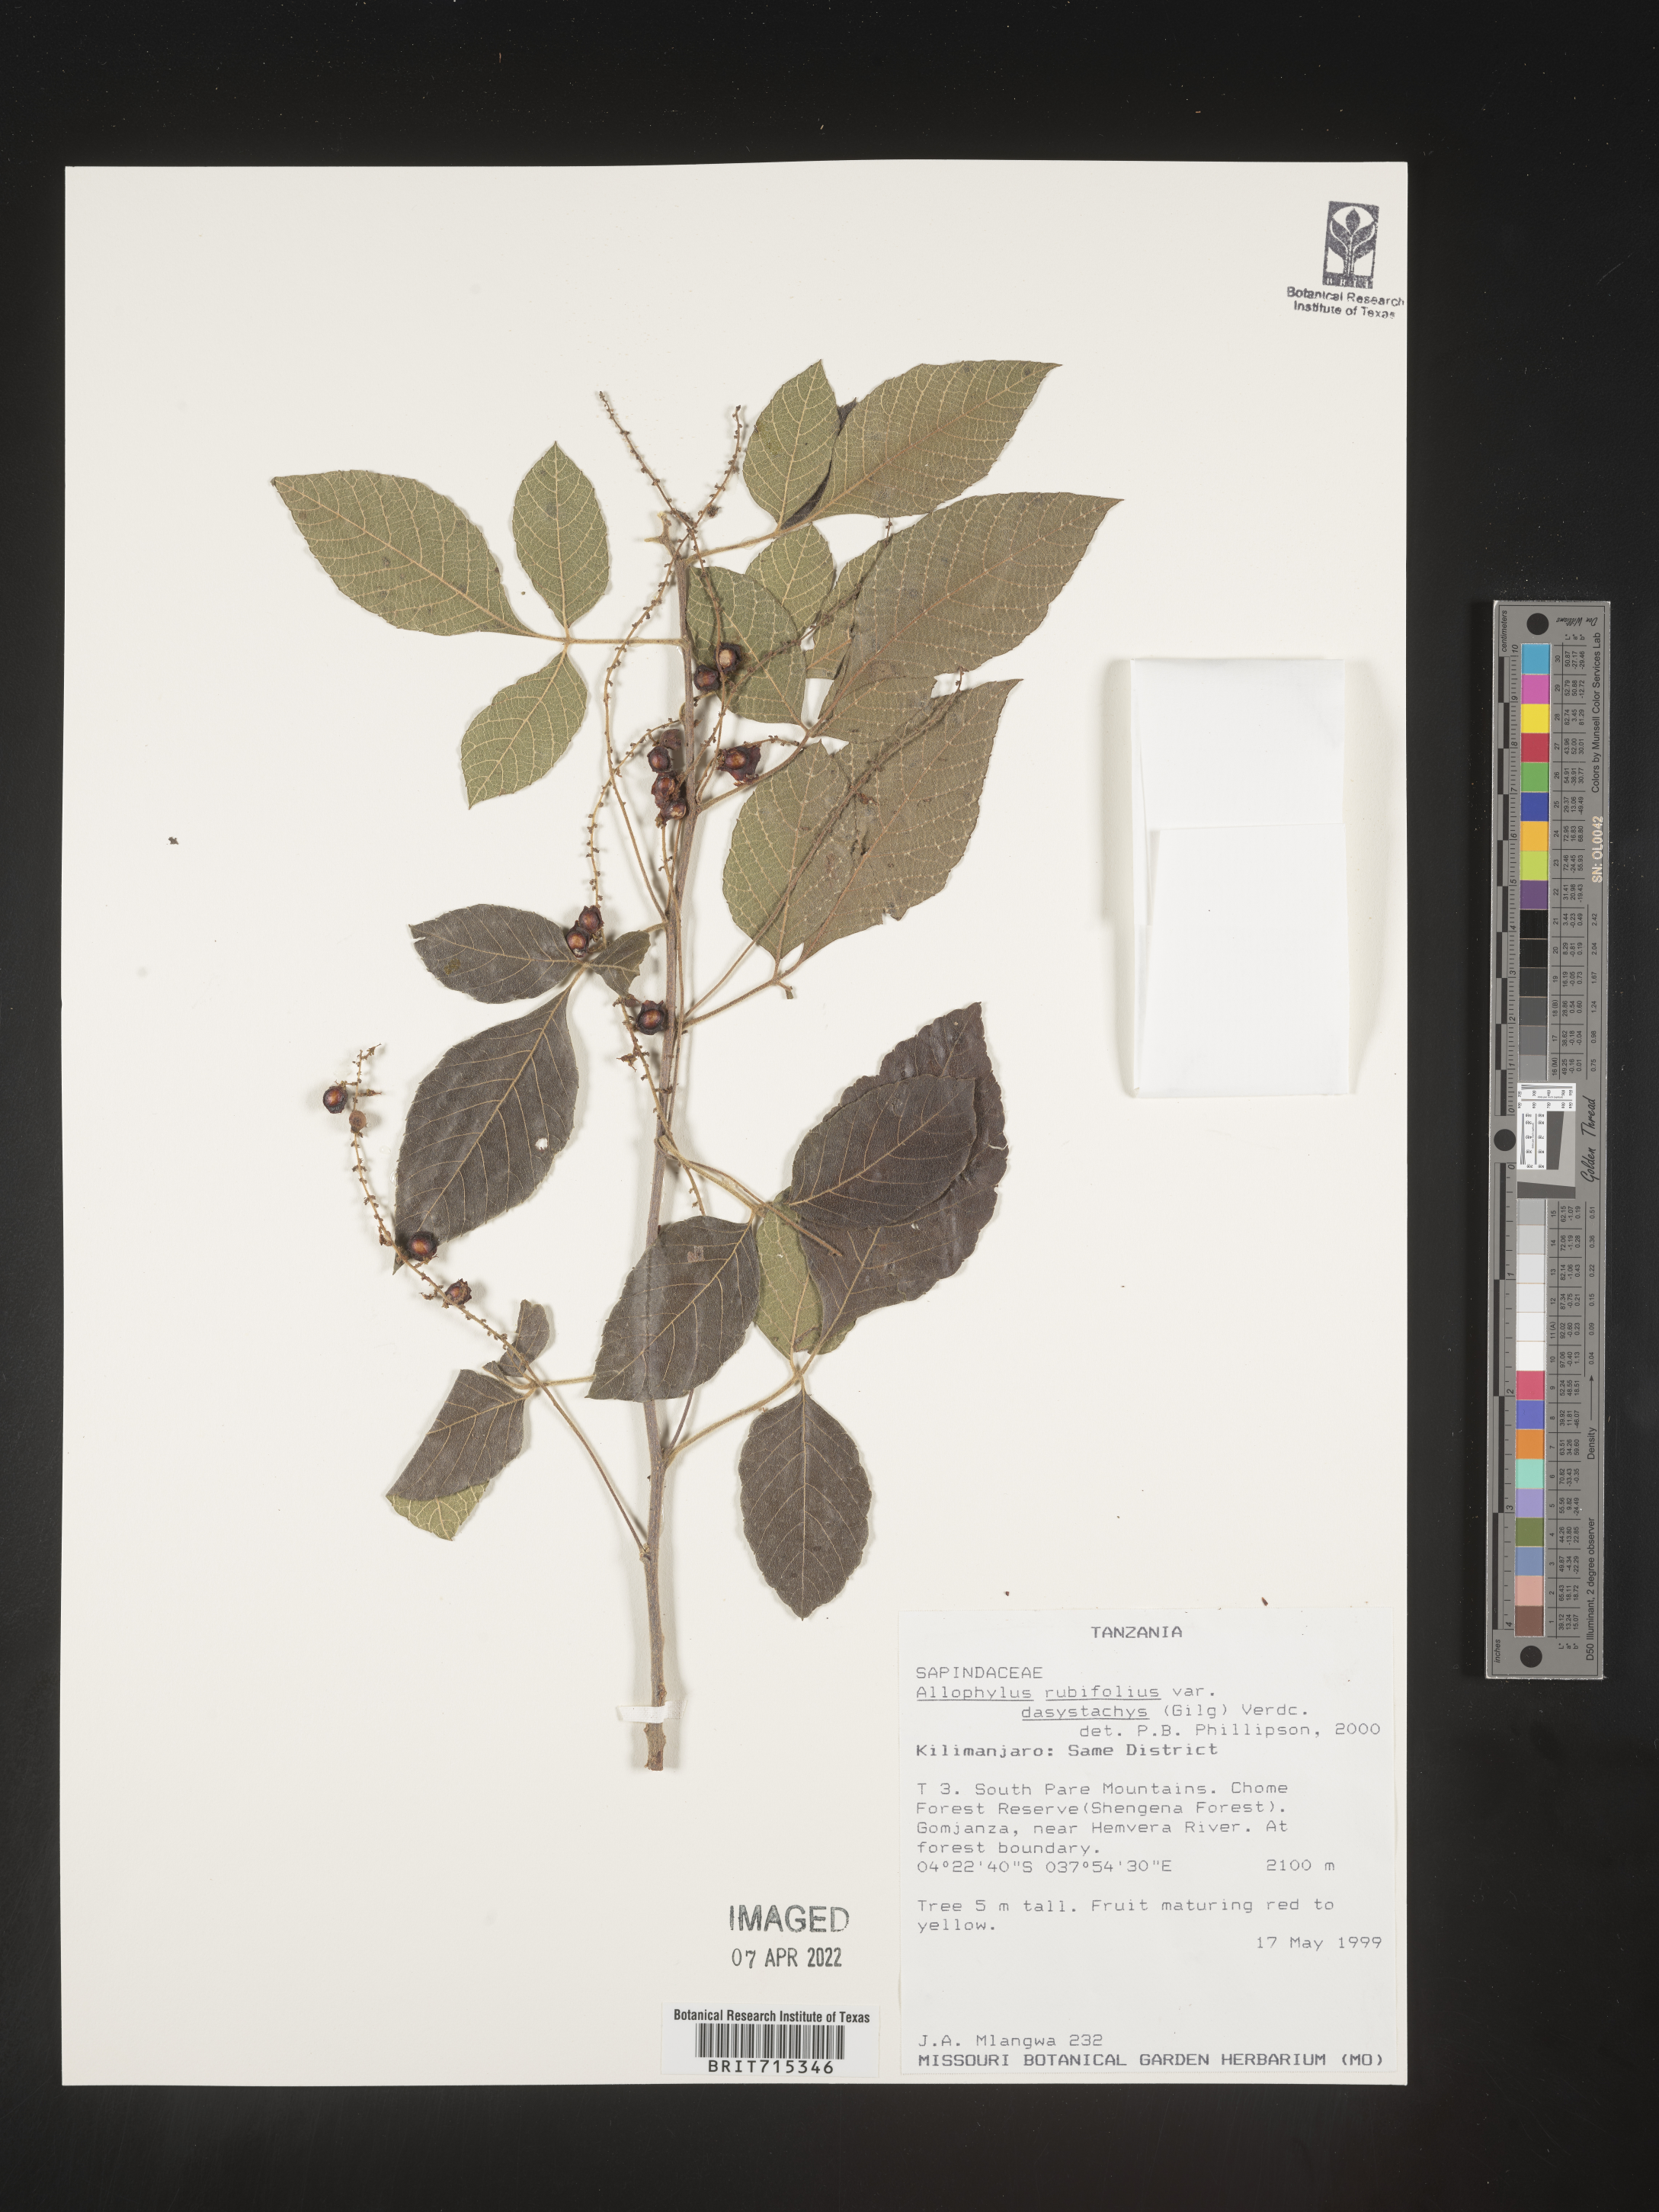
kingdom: Plantae
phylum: Tracheophyta
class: Magnoliopsida
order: Sapindales
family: Sapindaceae
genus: Allophylus
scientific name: Allophylus rubifolius
